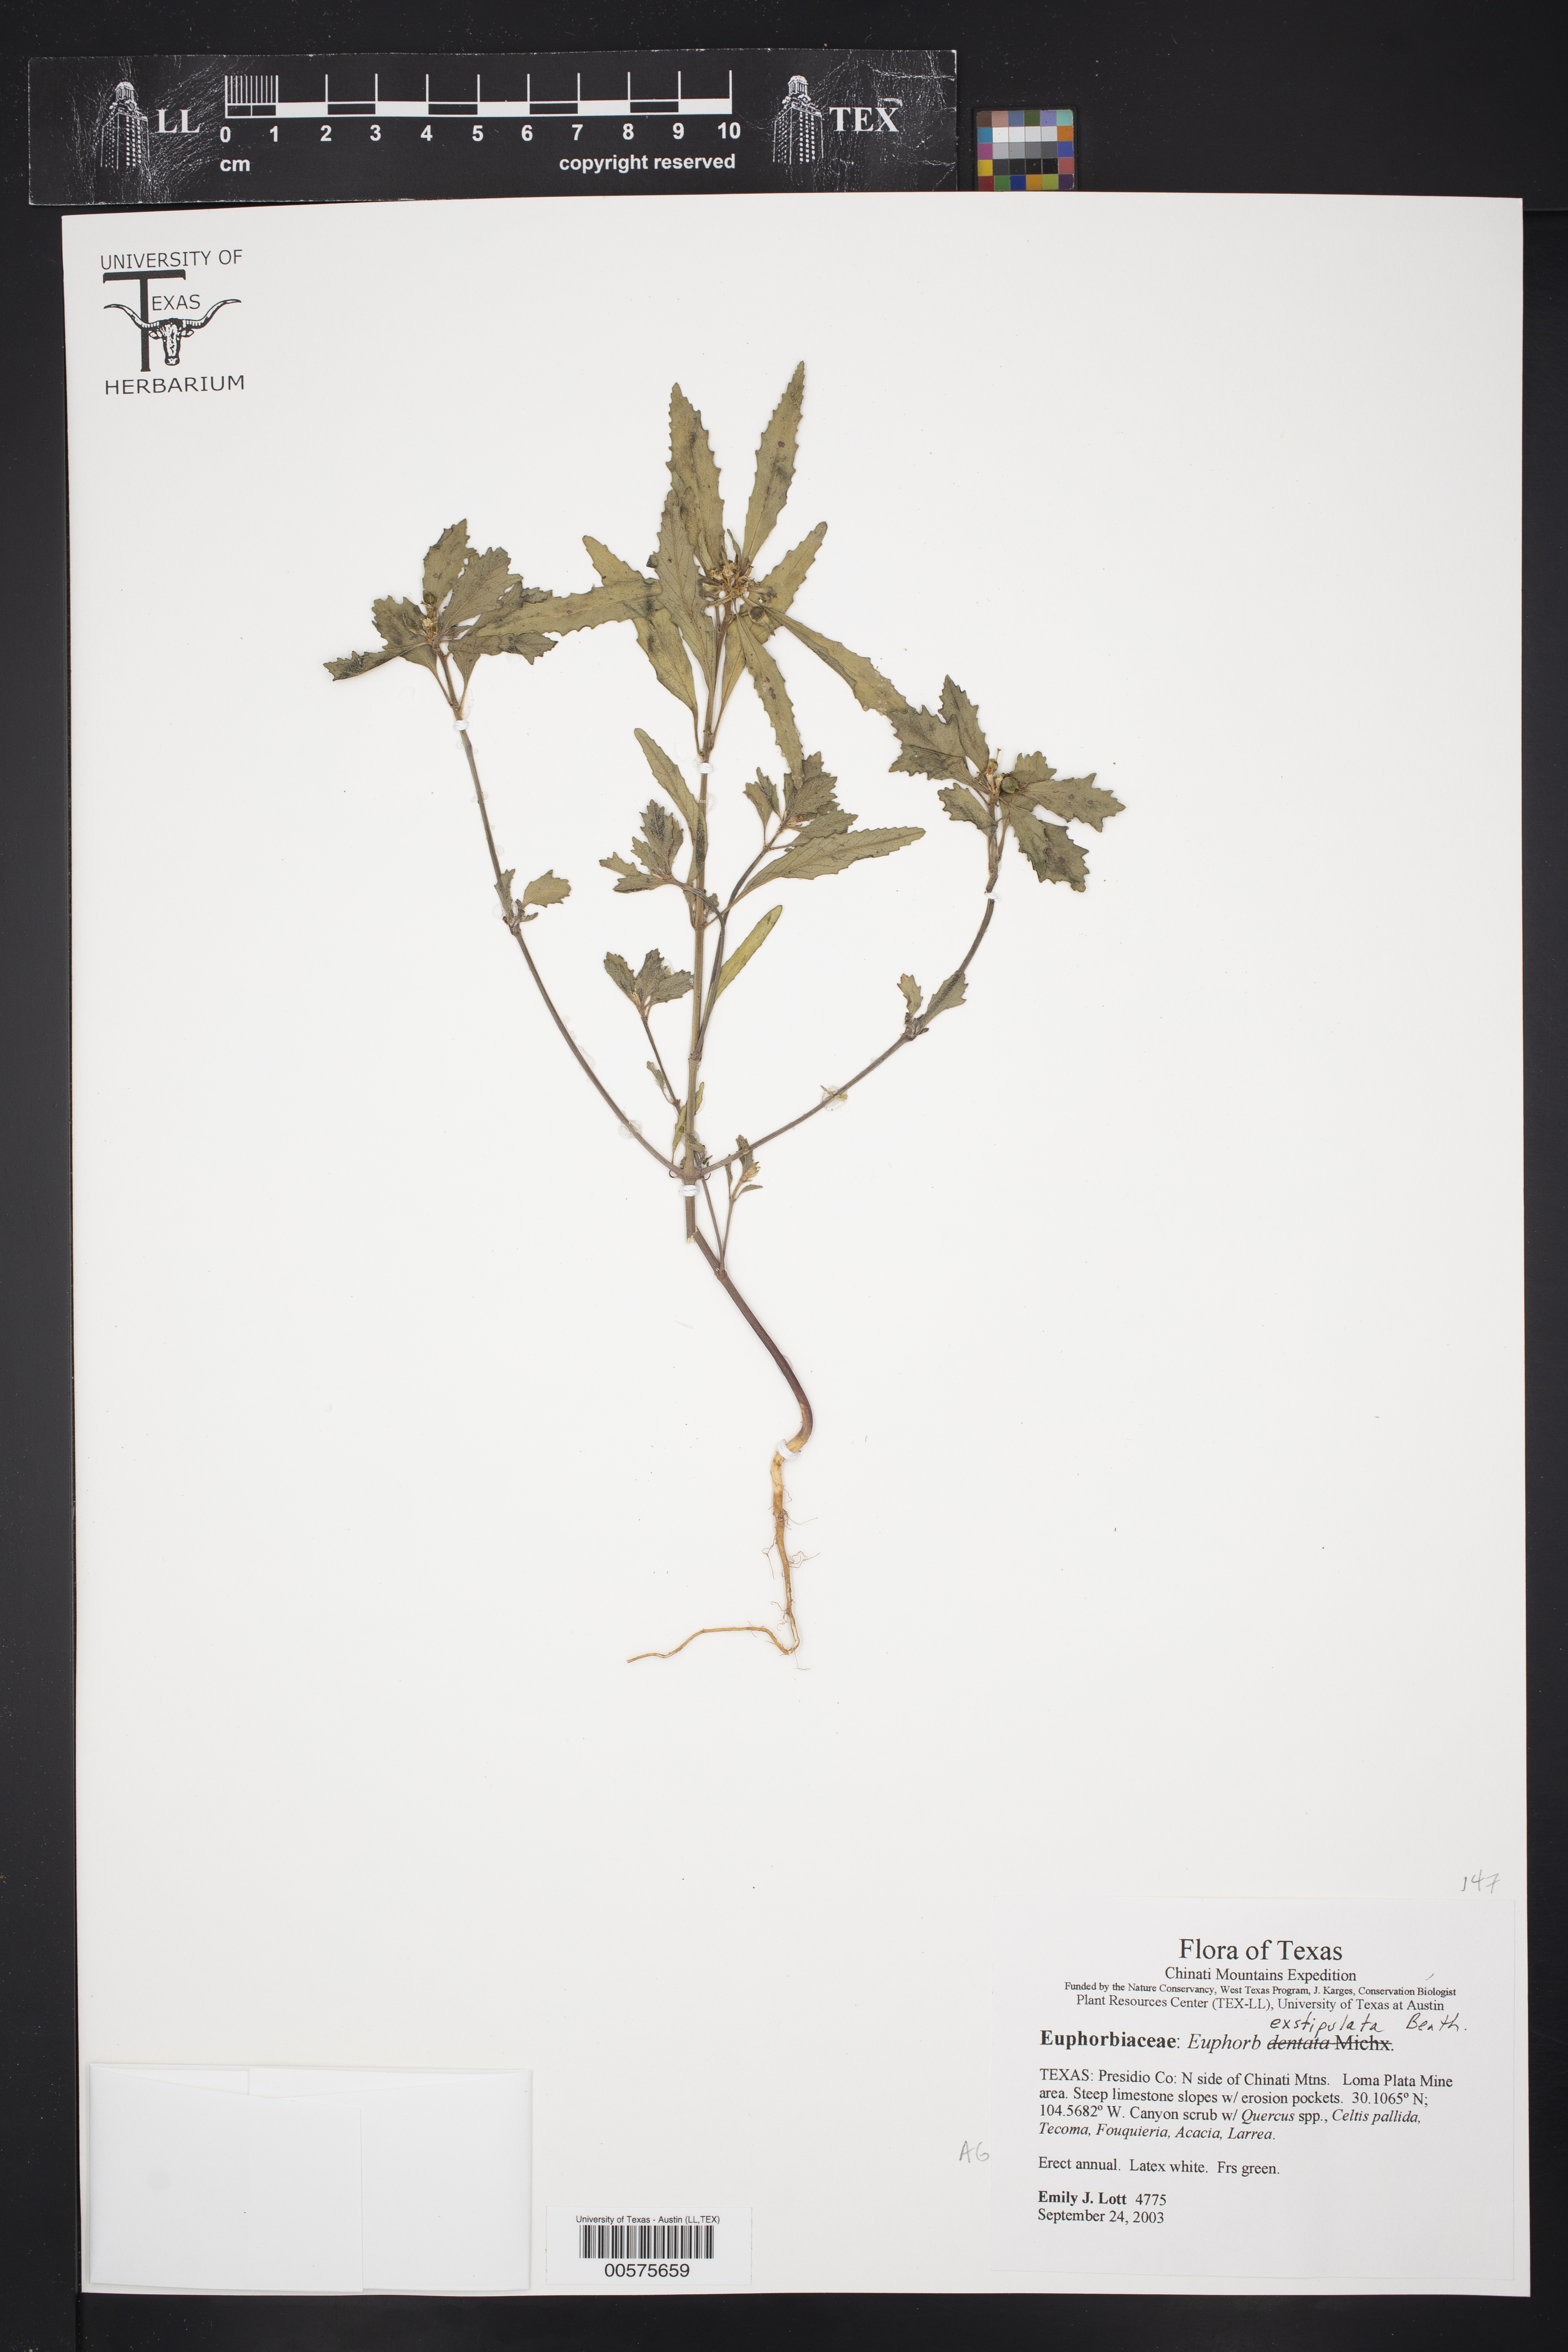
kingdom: Plantae
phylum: Tracheophyta
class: Magnoliopsida
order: Malpighiales
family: Euphorbiaceae
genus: Euphorbia
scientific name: Euphorbia exstipulata
